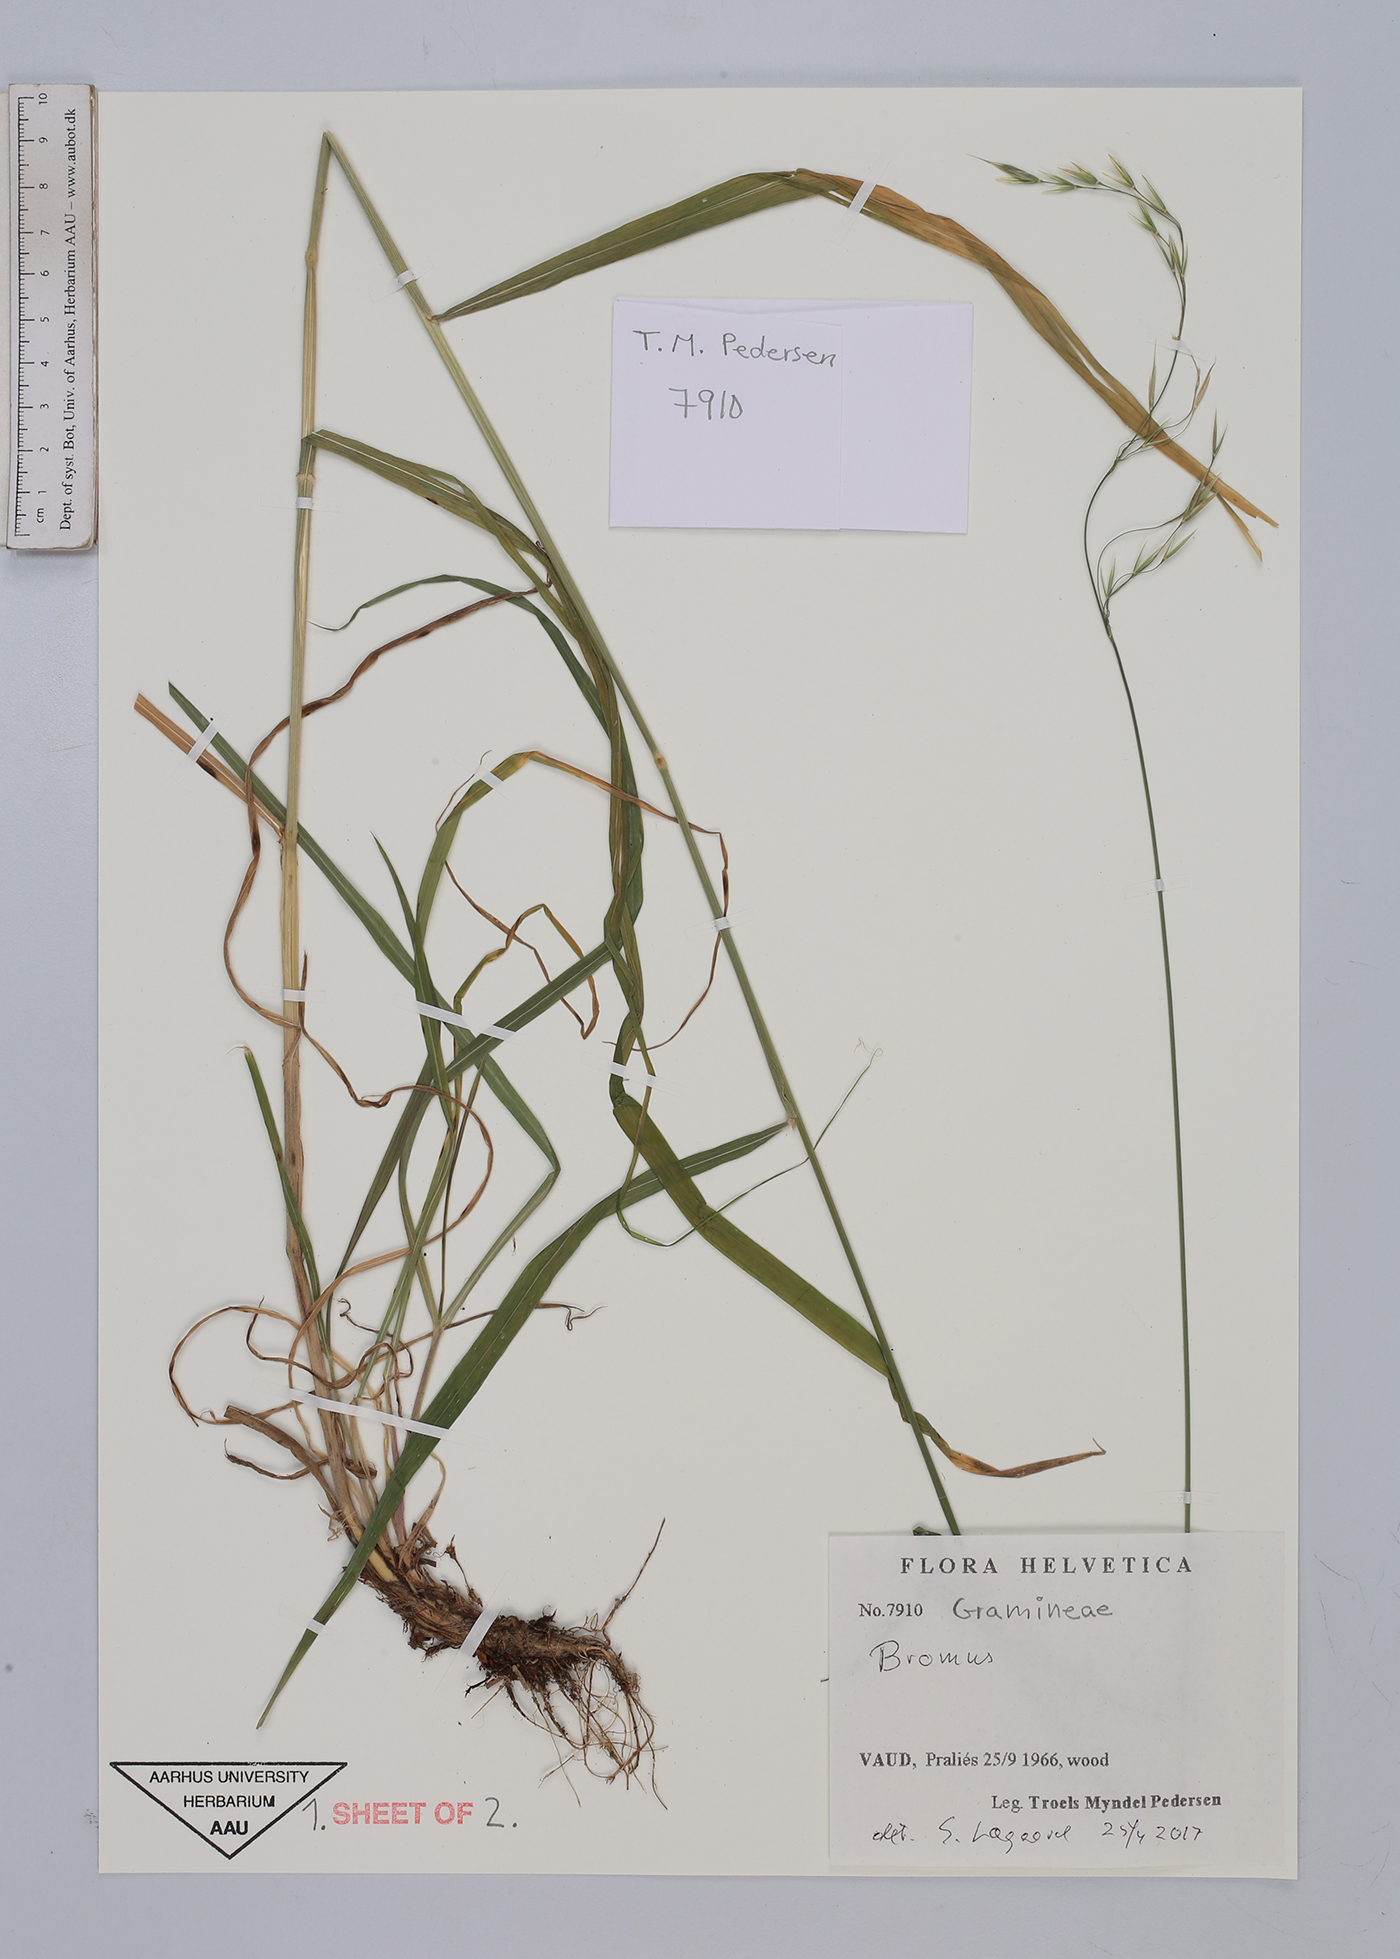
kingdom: Plantae
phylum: Tracheophyta
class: Liliopsida
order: Poales
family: Poaceae
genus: Bromus
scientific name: Bromus
